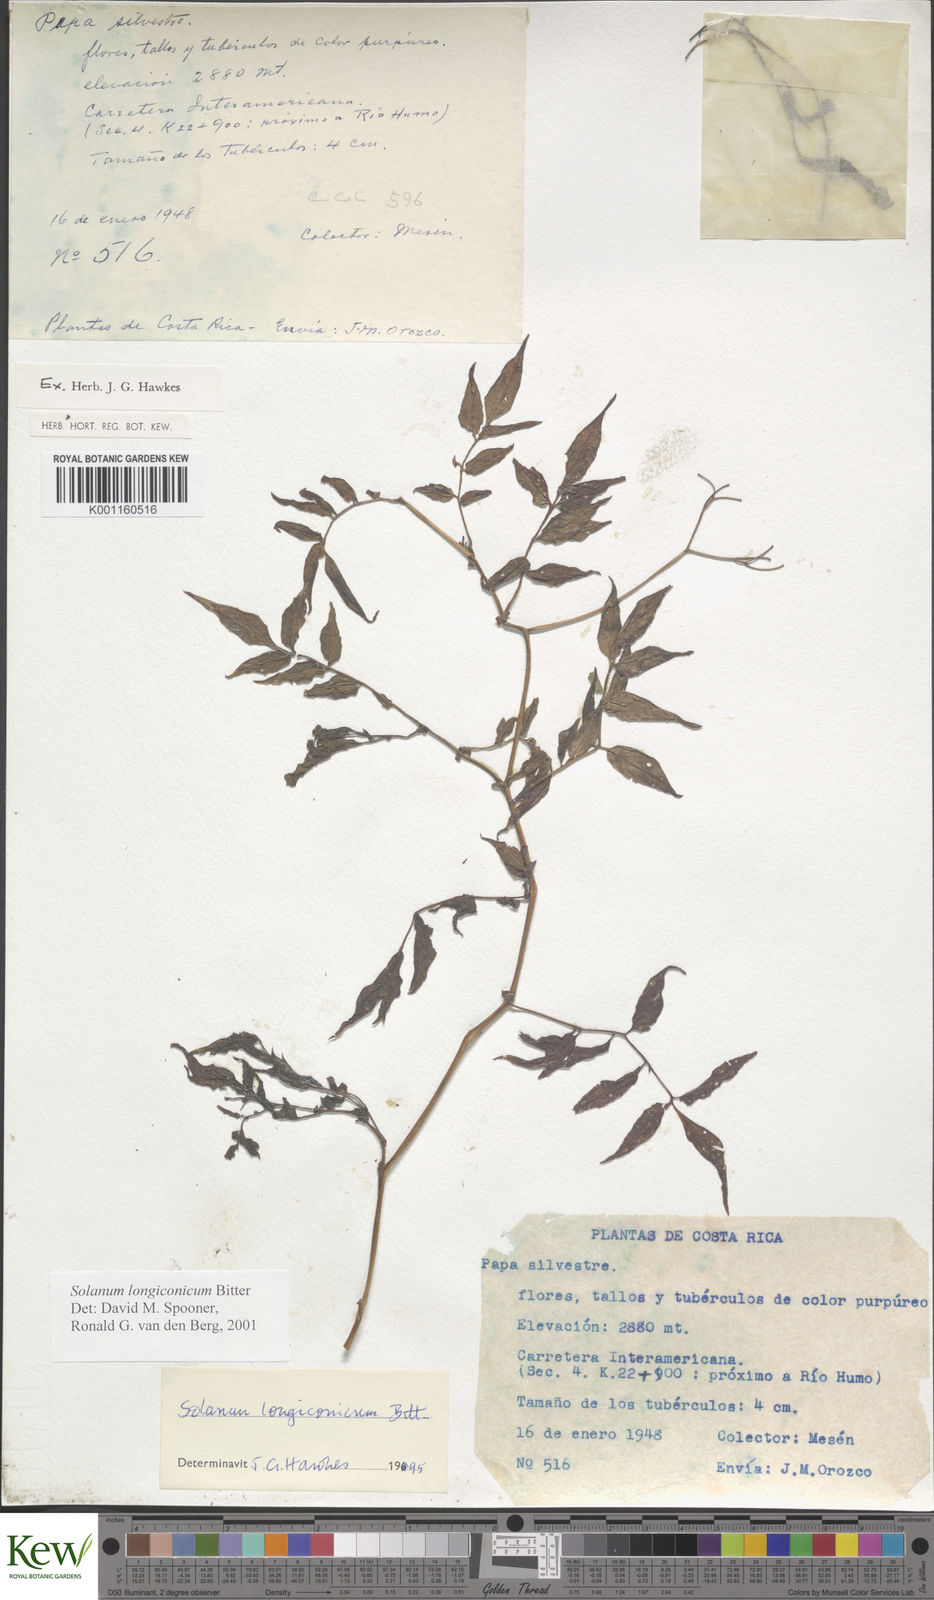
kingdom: Plantae
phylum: Tracheophyta
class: Magnoliopsida
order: Solanales
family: Solanaceae
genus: Solanum
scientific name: Solanum longiconicum
